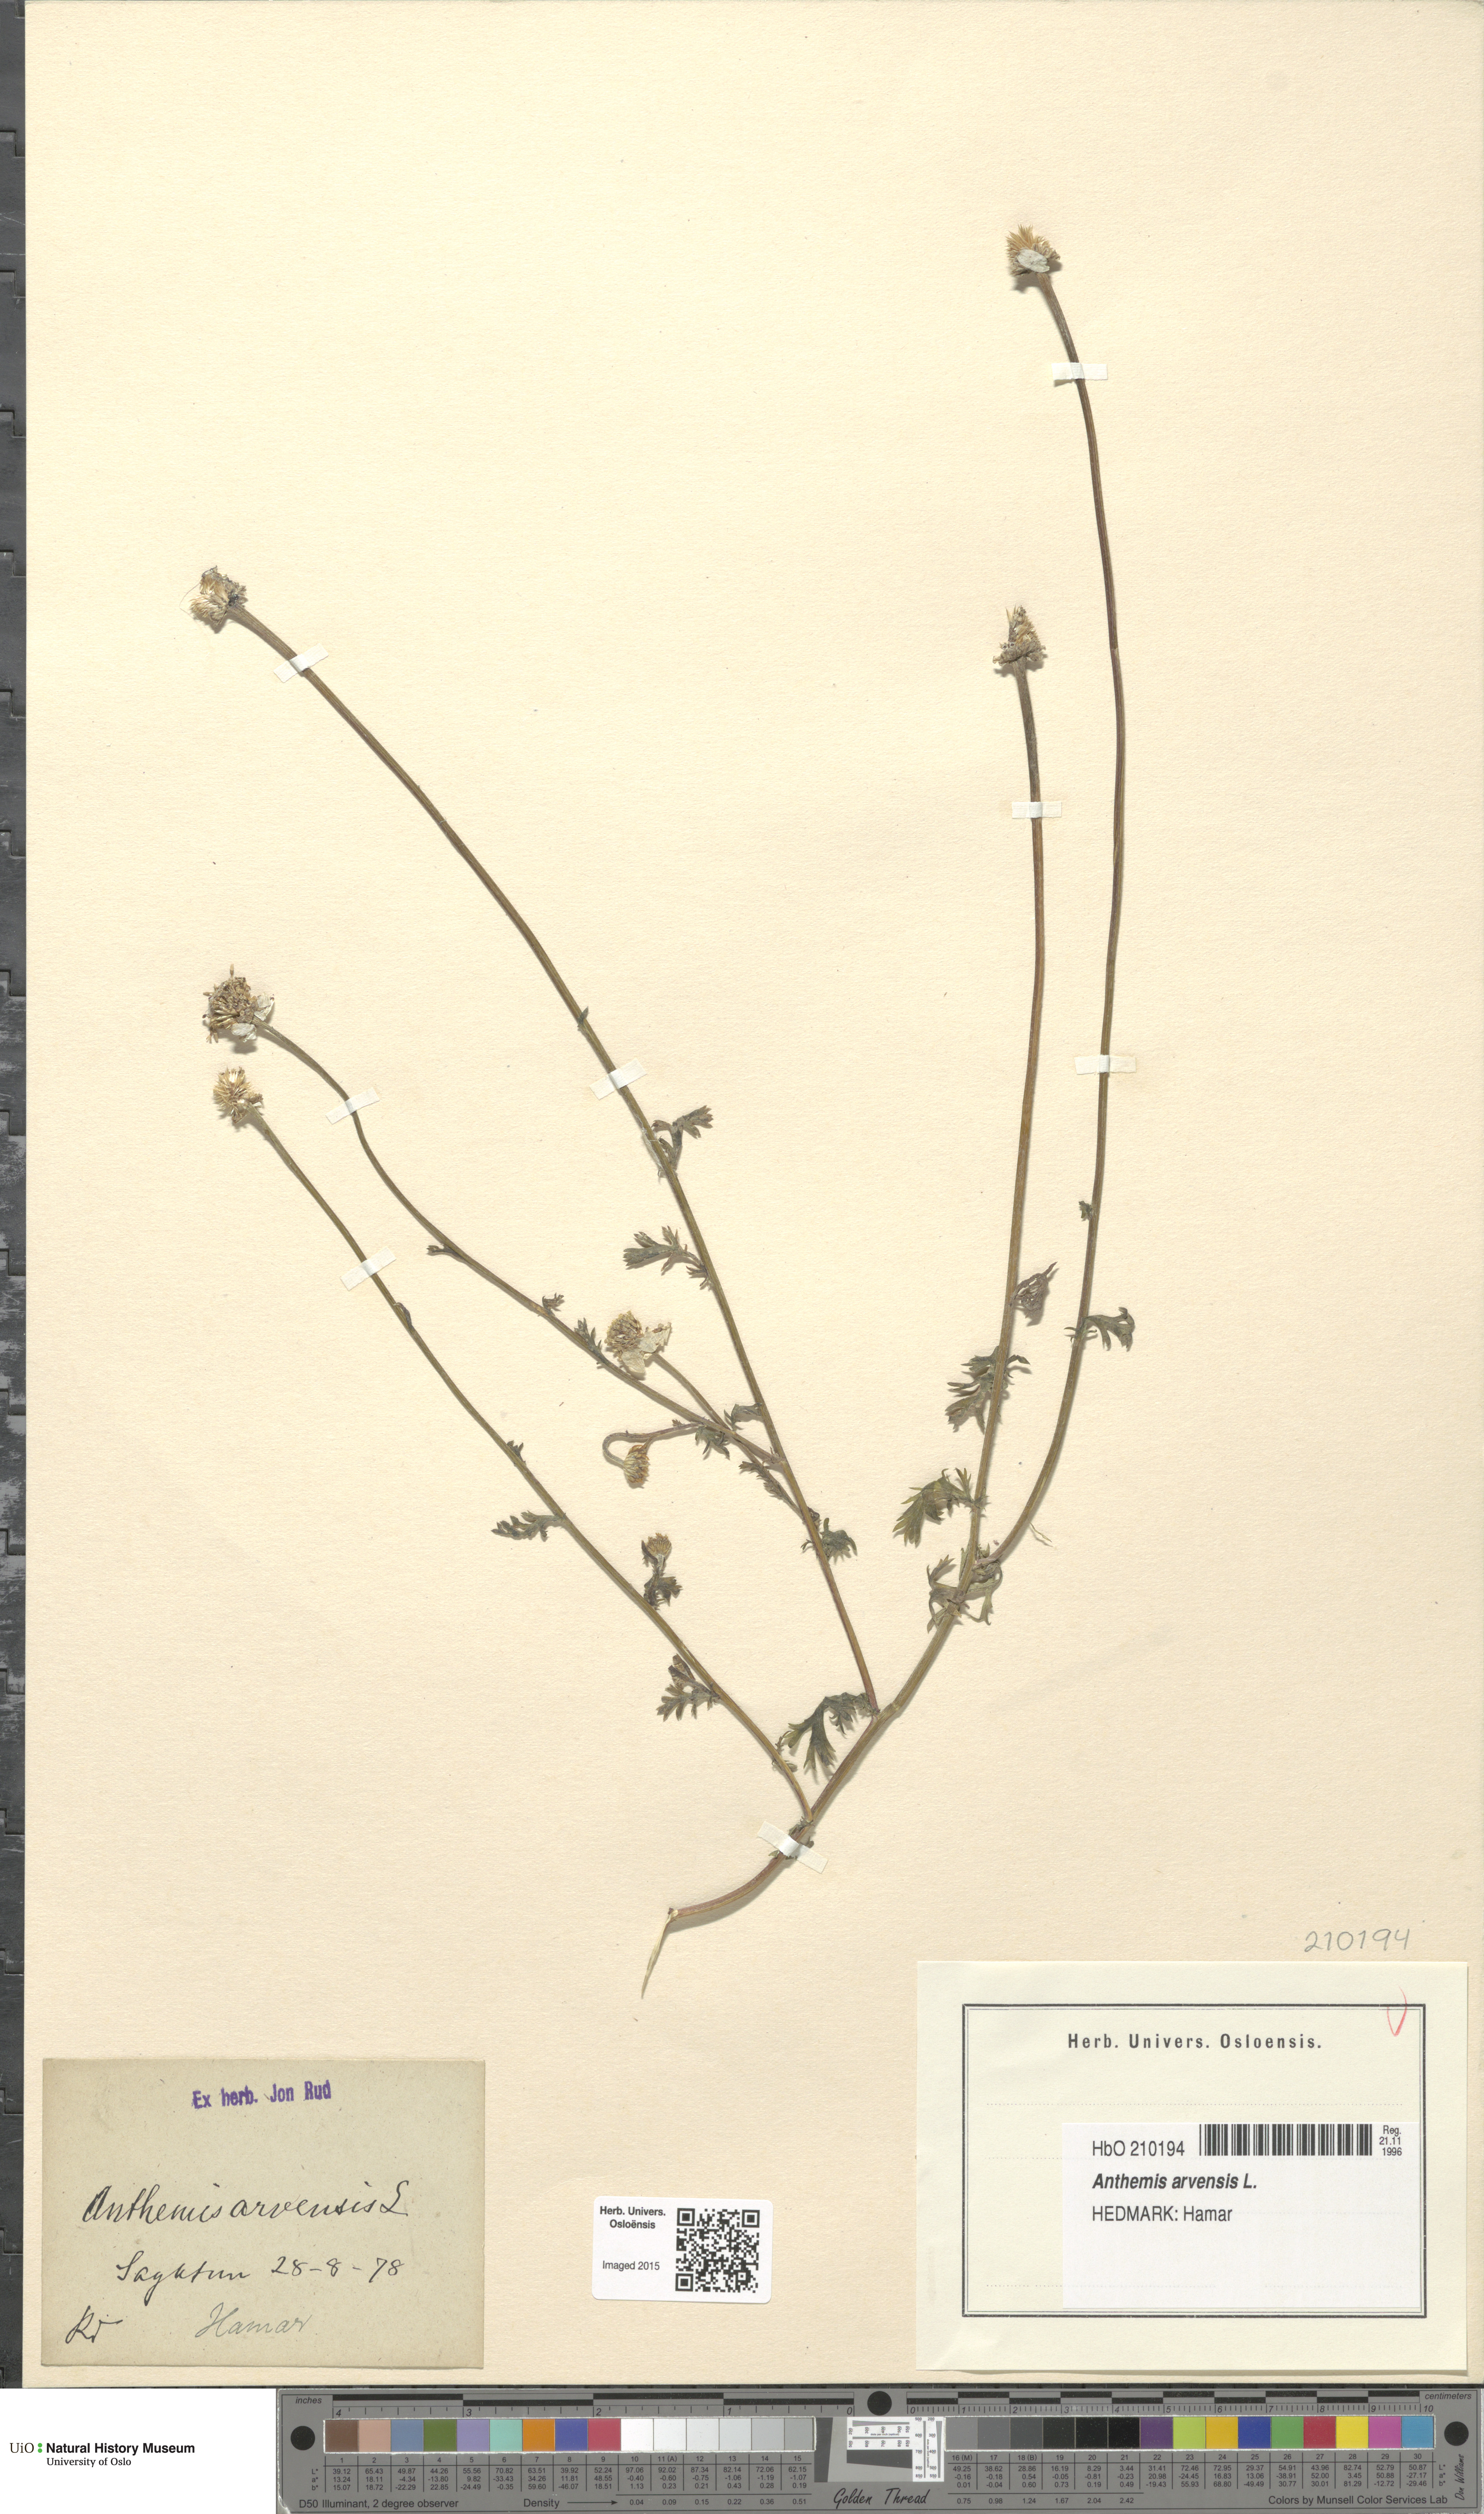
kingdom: Plantae
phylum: Tracheophyta
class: Magnoliopsida
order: Asterales
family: Asteraceae
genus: Anthemis
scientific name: Anthemis arvensis
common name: Corn chamomile
